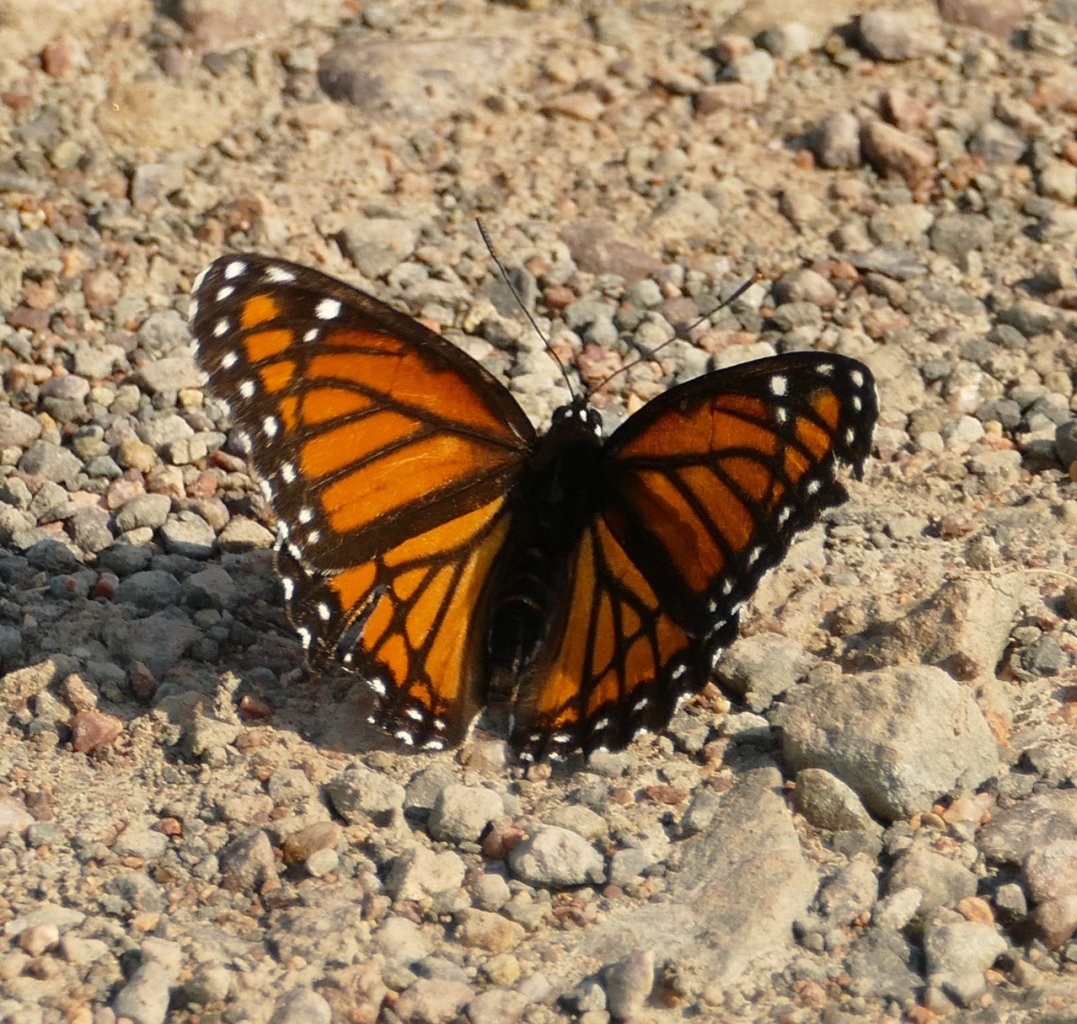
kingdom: Animalia
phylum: Arthropoda
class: Insecta
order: Lepidoptera
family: Nymphalidae
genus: Limenitis
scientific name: Limenitis archippus
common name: Viceroy
